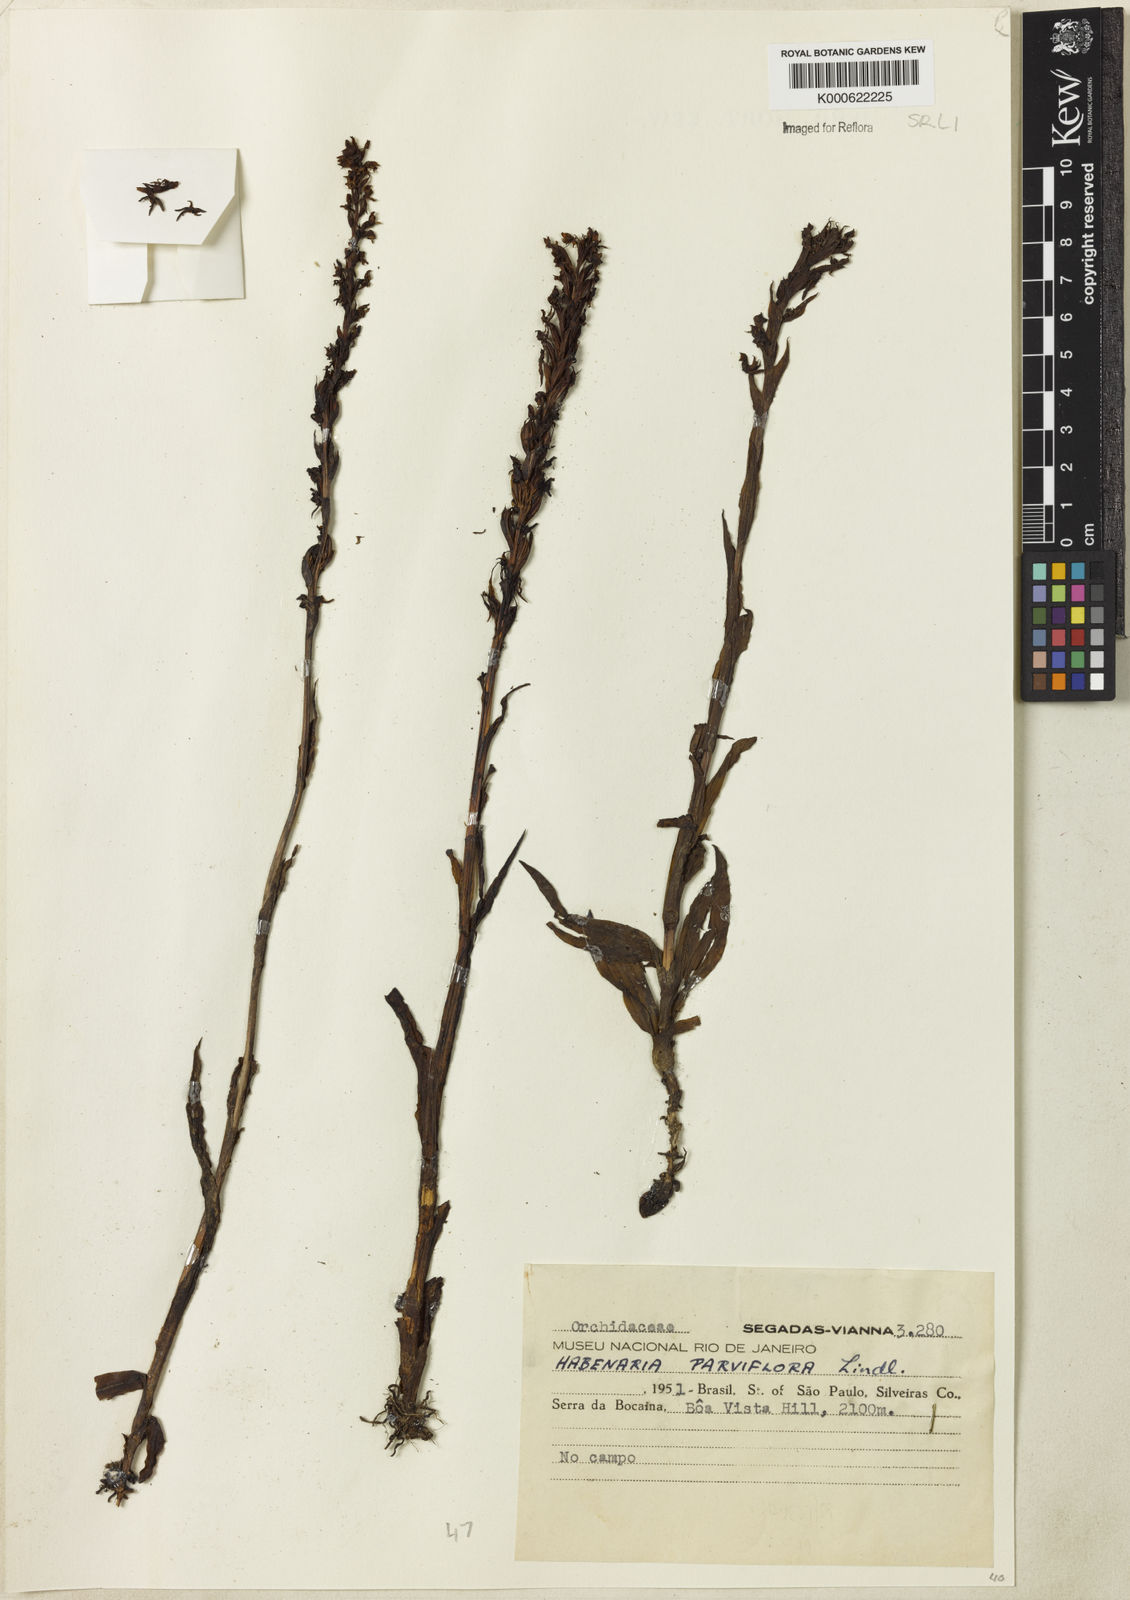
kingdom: Plantae
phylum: Tracheophyta
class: Liliopsida
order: Asparagales
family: Orchidaceae
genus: Habenaria
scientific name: Habenaria parviflora
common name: Small flowered habenaria
